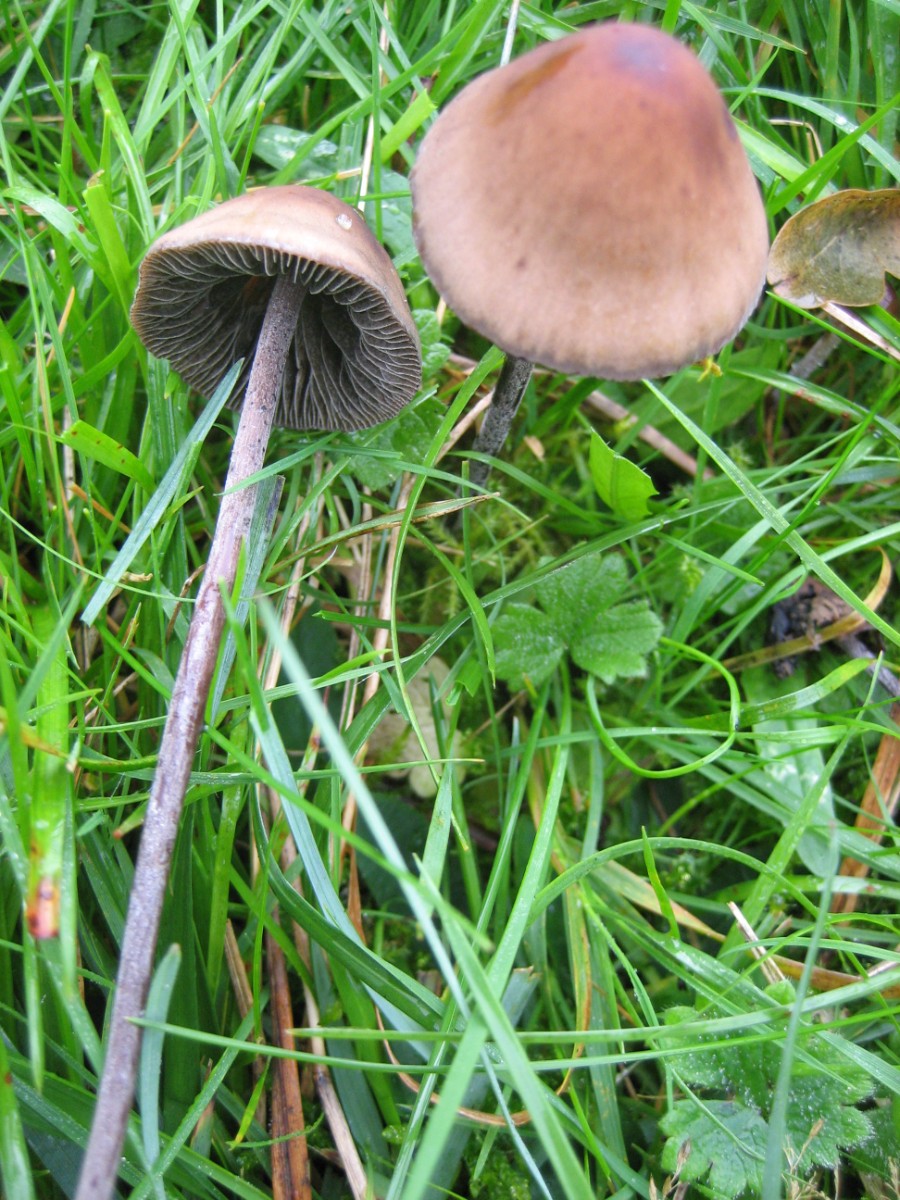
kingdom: Fungi
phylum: Basidiomycota
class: Agaricomycetes
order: Agaricales
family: Bolbitiaceae
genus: Panaeolus
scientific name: Panaeolus acuminatus
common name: høj glanshat
